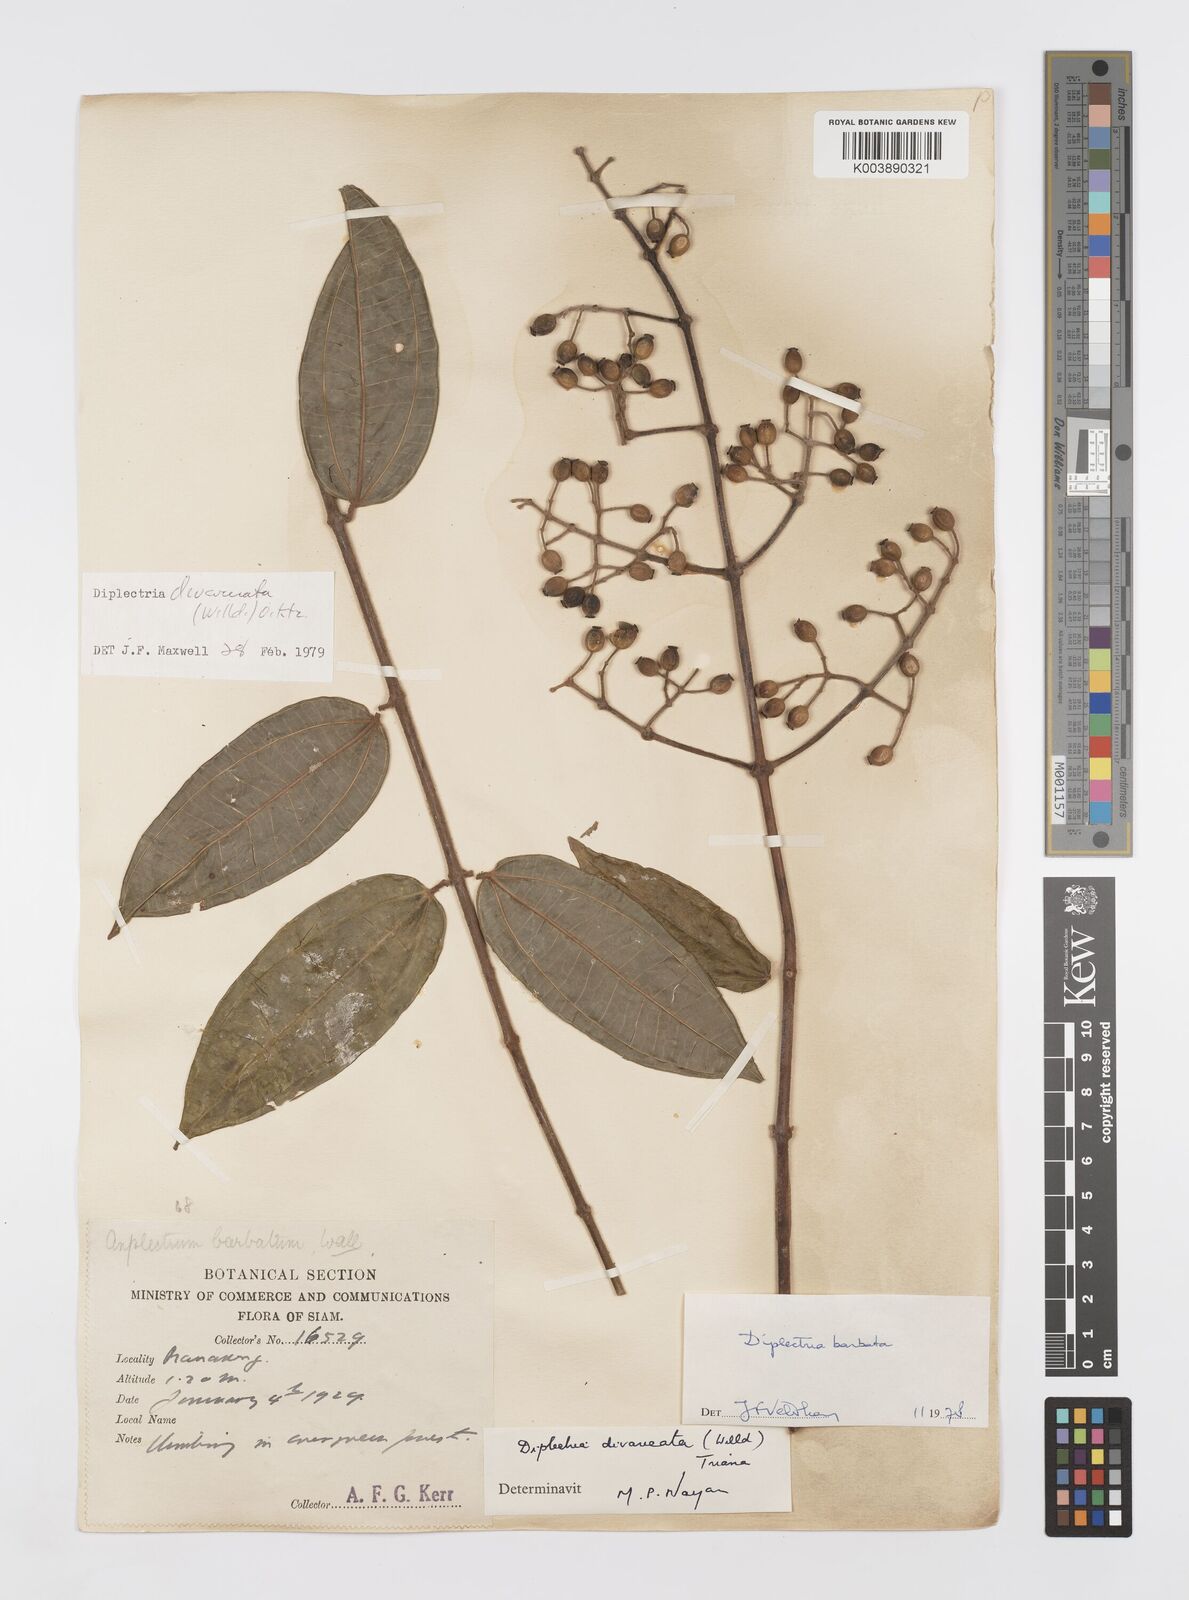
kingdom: Plantae
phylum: Tracheophyta
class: Magnoliopsida
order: Myrtales
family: Melastomataceae
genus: Diplectria
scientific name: Diplectria divaricata
